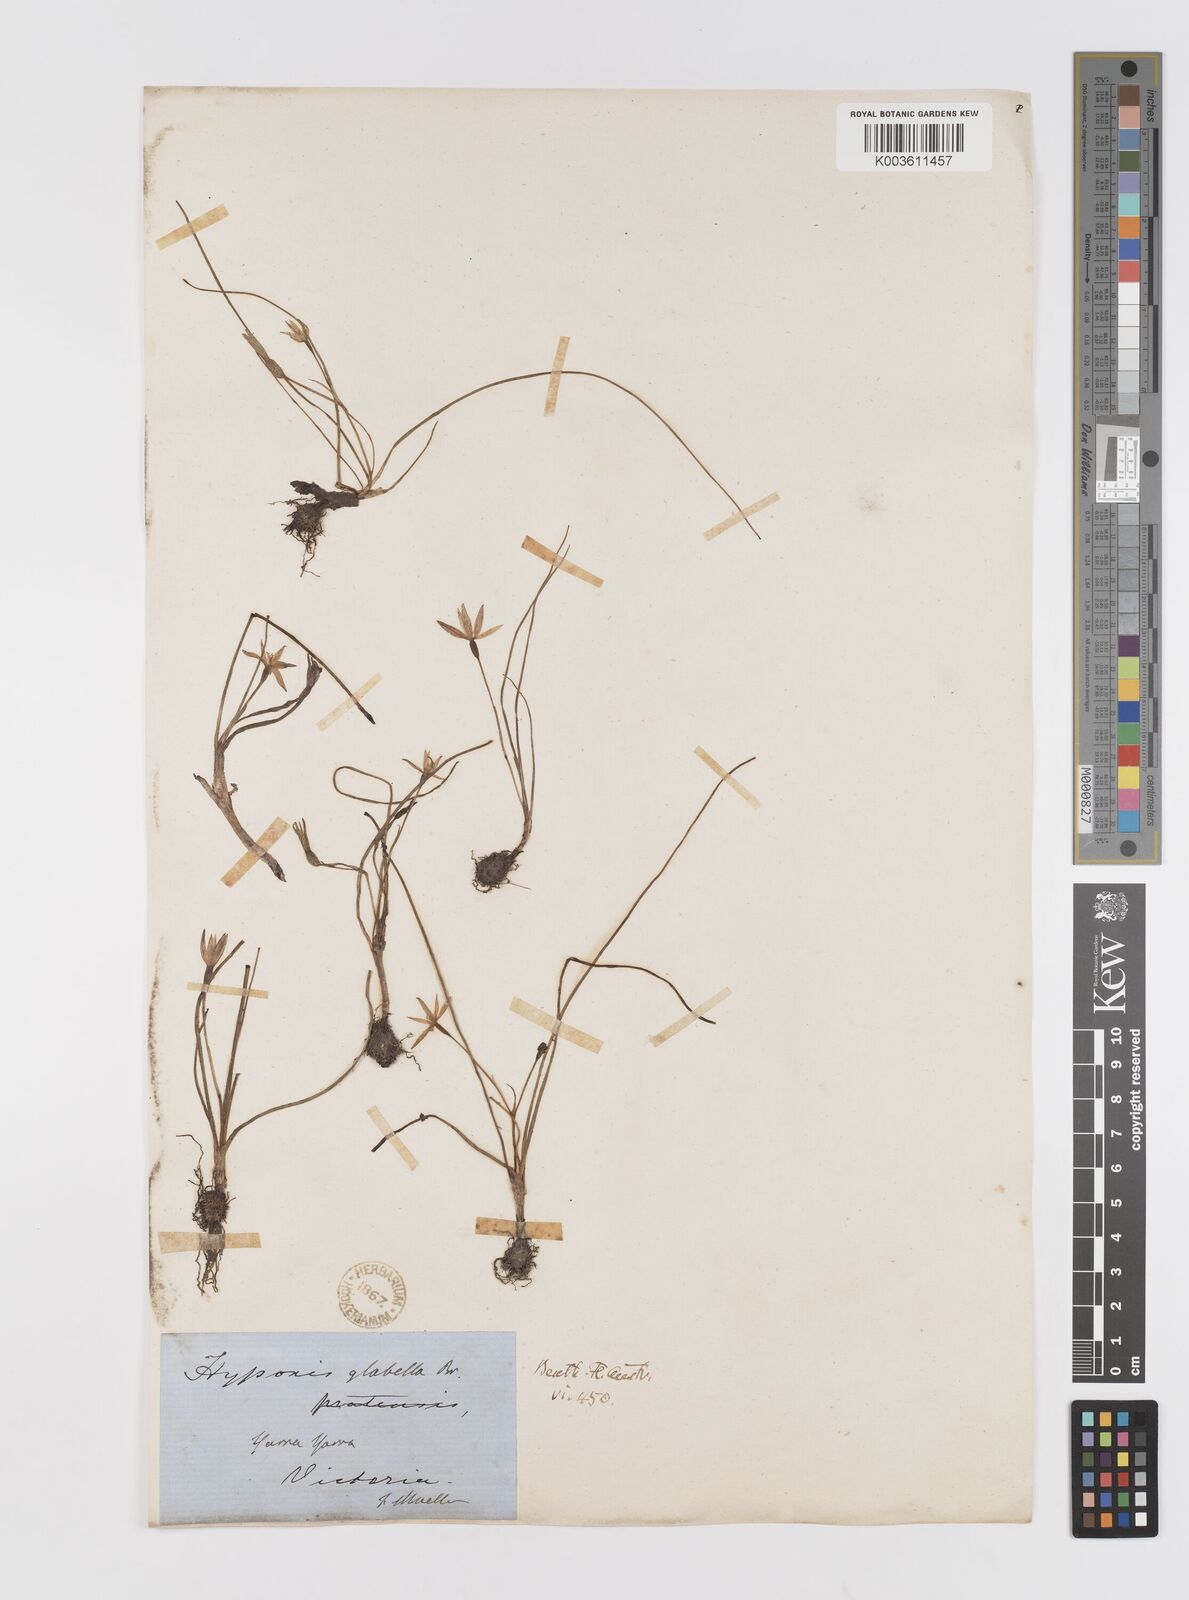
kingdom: Plantae
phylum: Tracheophyta
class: Liliopsida
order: Asparagales
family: Hypoxidaceae
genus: Pauridia
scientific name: Pauridia glabella
